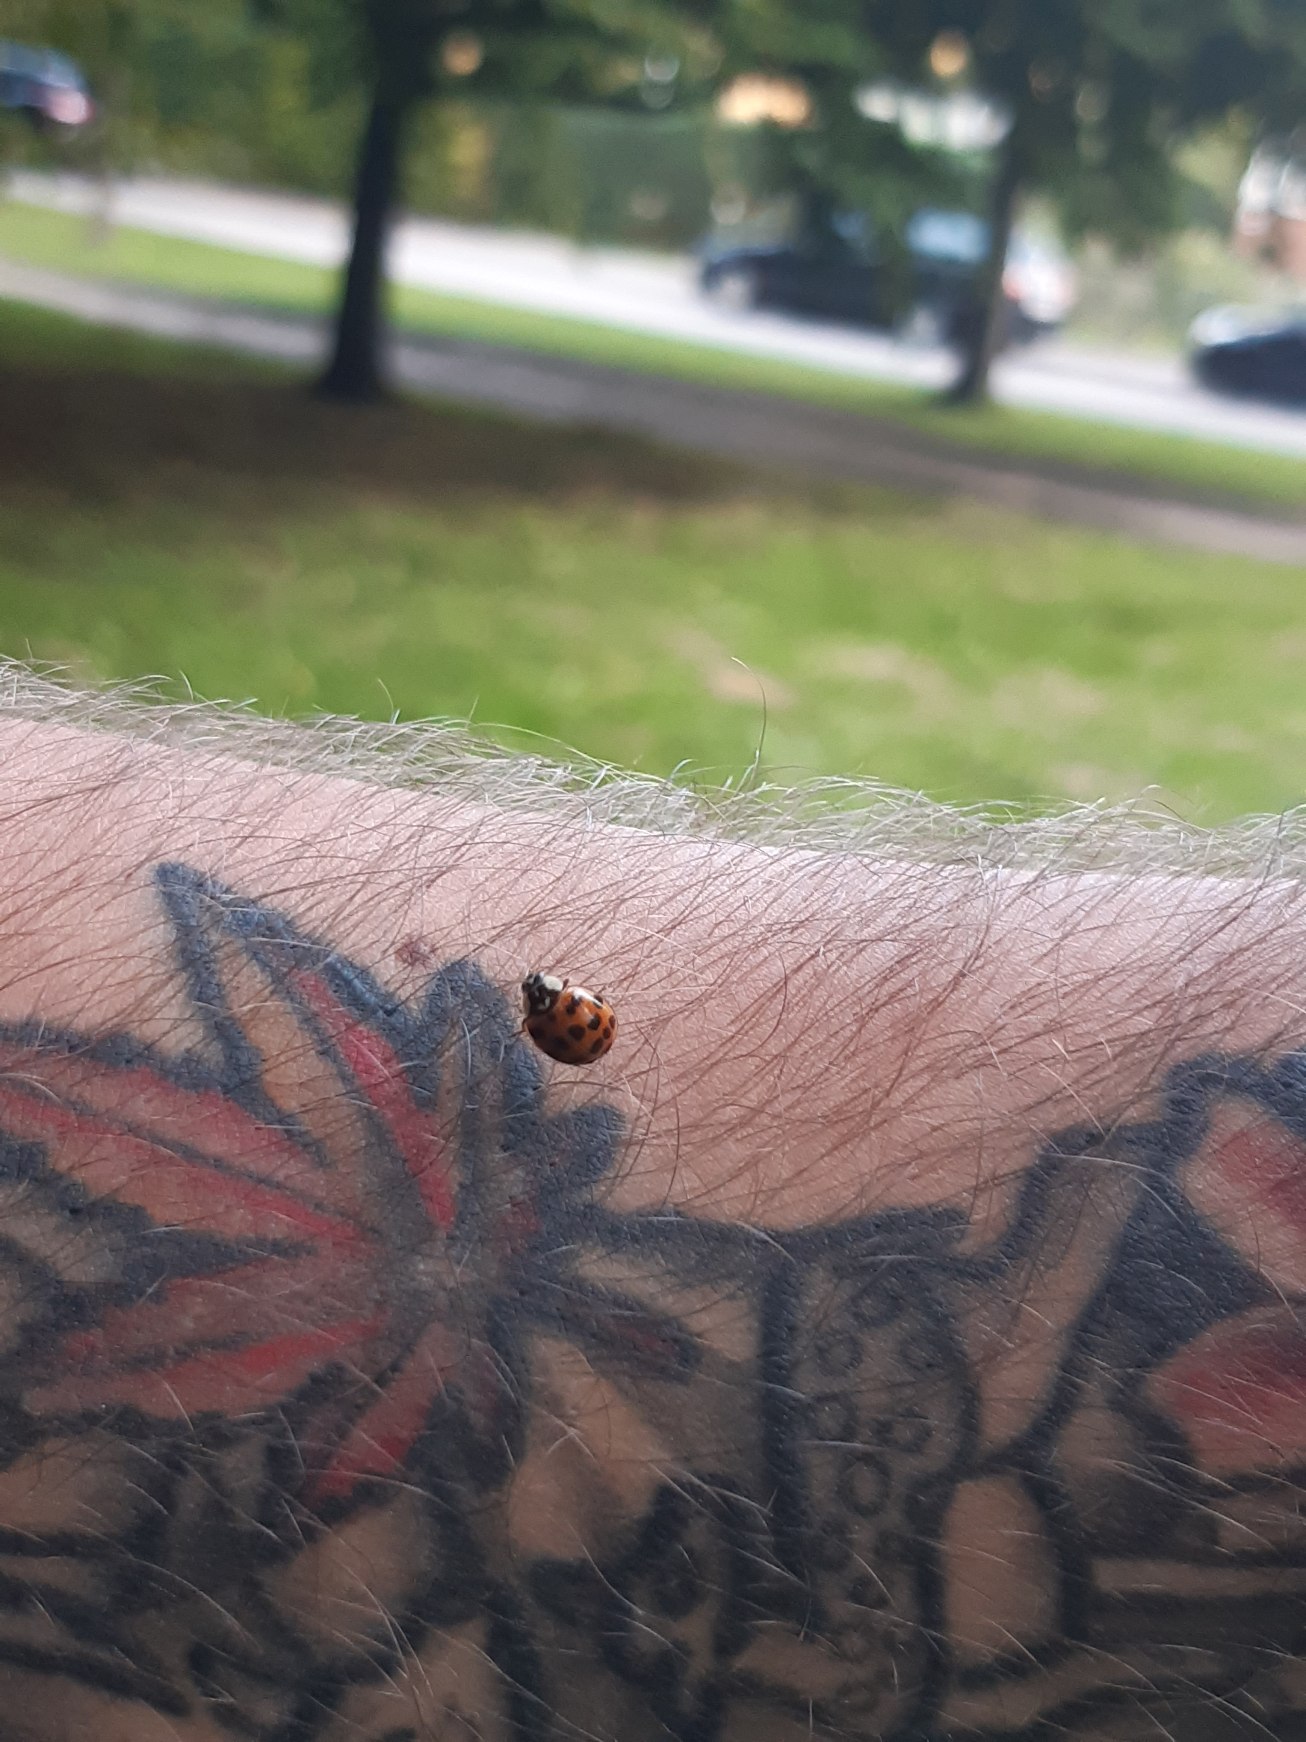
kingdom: Animalia
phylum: Arthropoda
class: Insecta
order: Coleoptera
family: Coccinellidae
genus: Harmonia
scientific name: Harmonia axyridis
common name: Harlekinmariehøne
